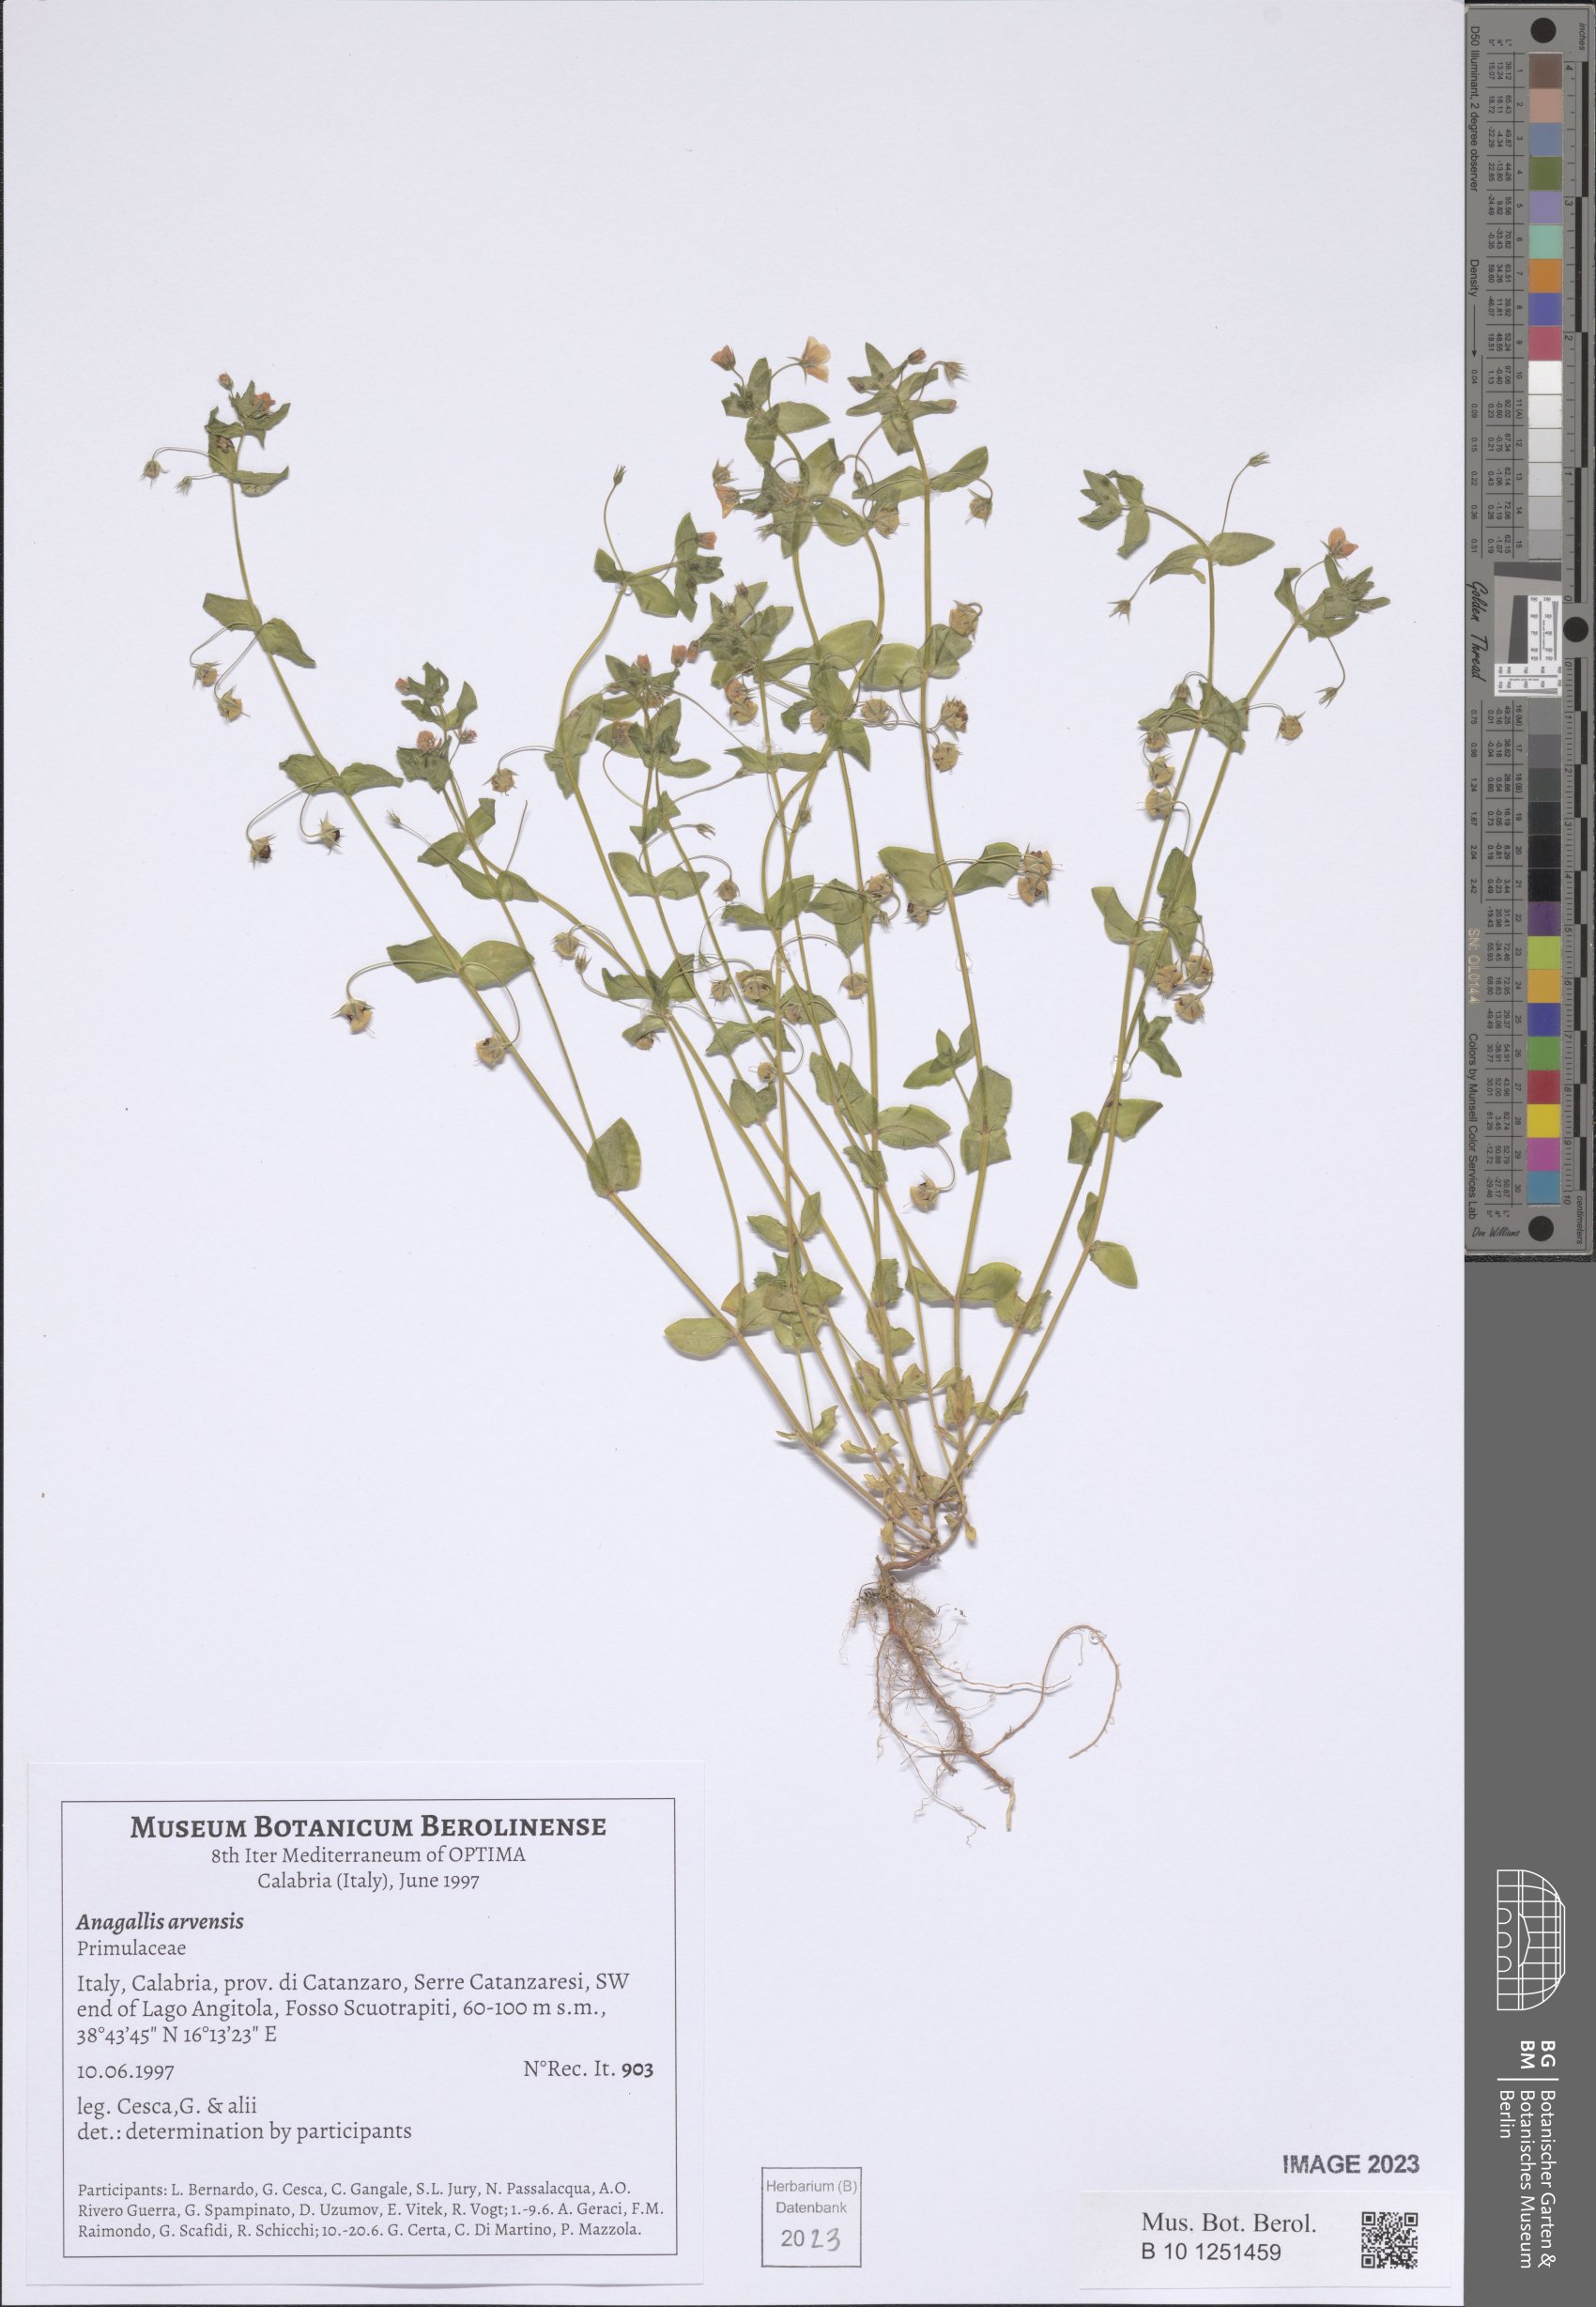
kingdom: Plantae
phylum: Tracheophyta
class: Magnoliopsida
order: Ericales
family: Primulaceae
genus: Lysimachia
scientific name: Lysimachia arvensis
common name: Scarlet pimpernel
